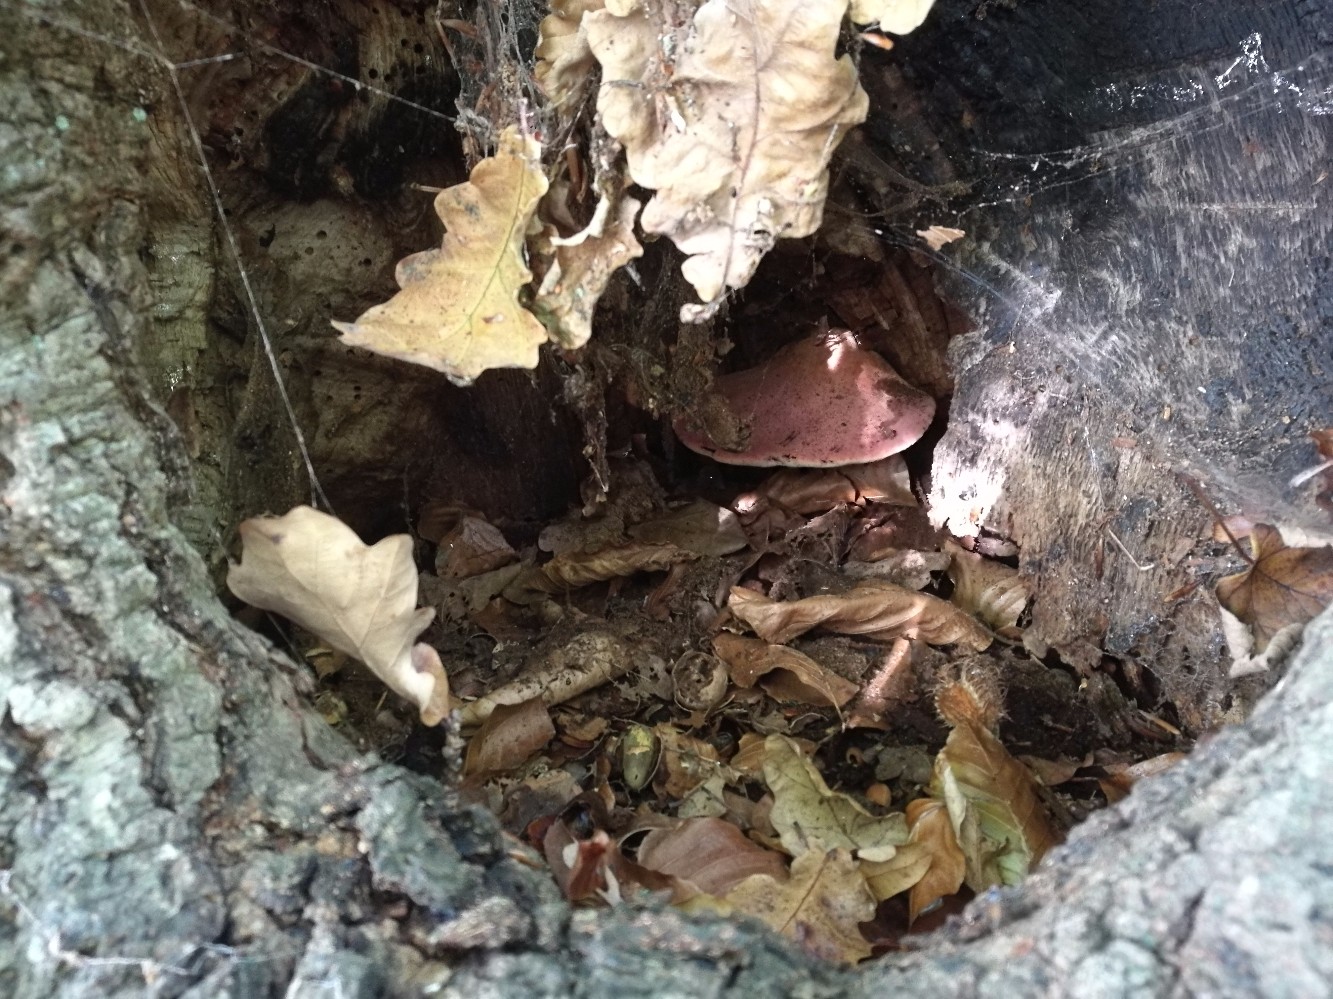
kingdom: Fungi
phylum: Basidiomycota
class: Agaricomycetes
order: Agaricales
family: Fistulinaceae
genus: Fistulina
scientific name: Fistulina hepatica
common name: oksetunge
